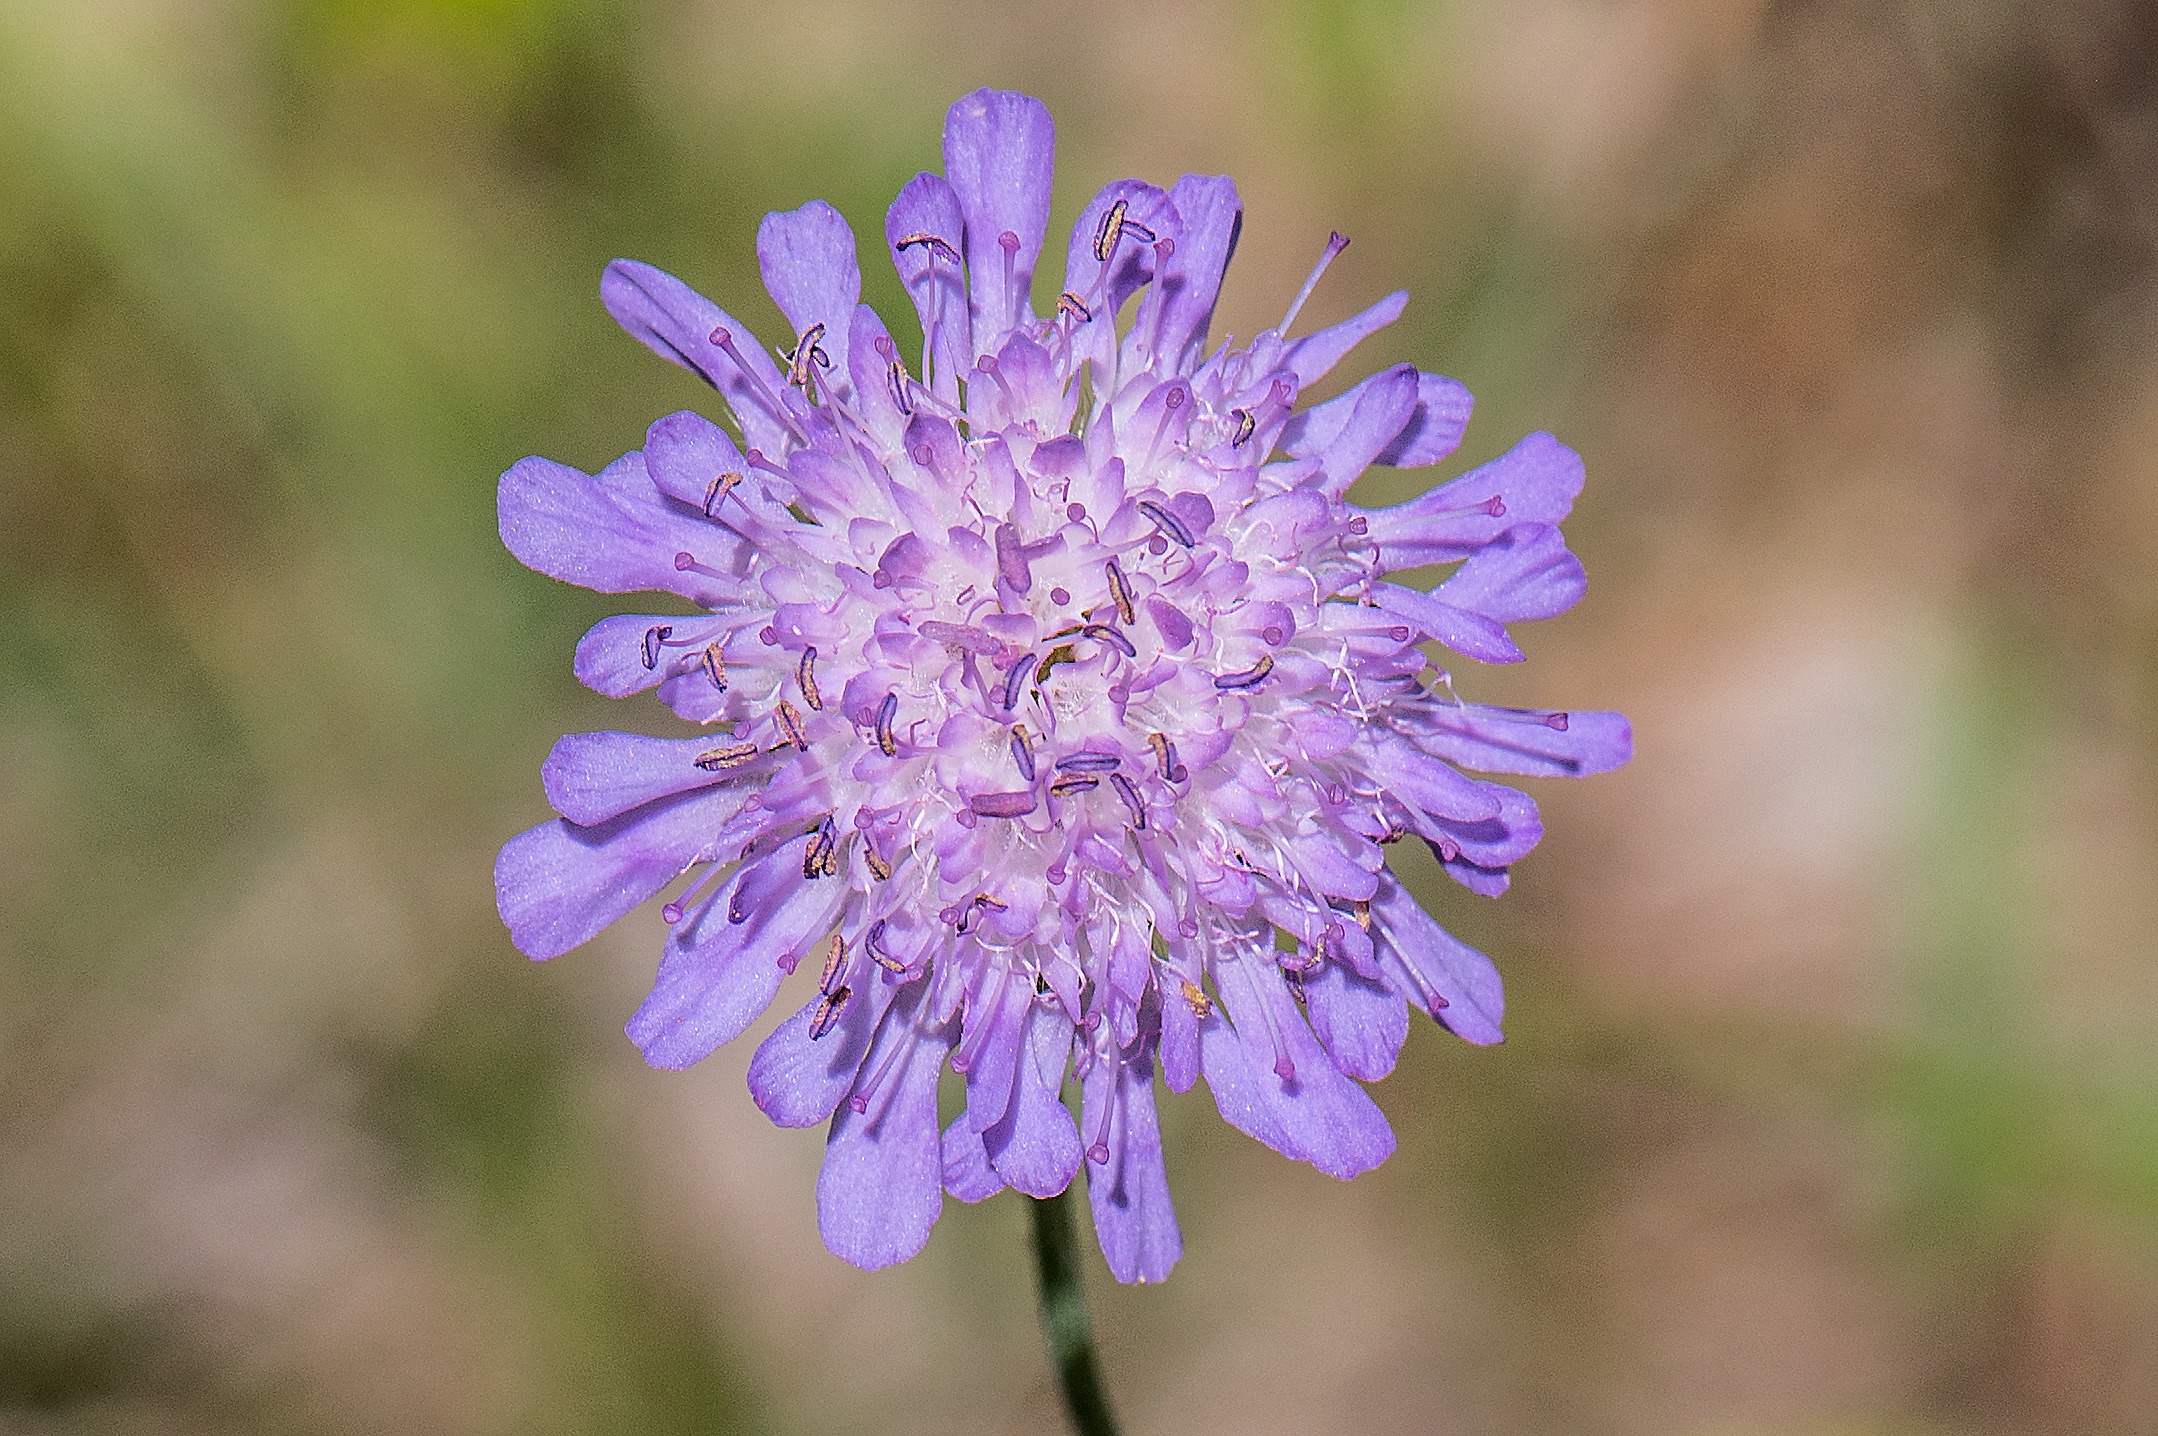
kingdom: Plantae
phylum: Tracheophyta
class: Magnoliopsida
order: Dipsacales
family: Caprifoliaceae
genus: Knautia
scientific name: Knautia arvensis
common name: Blåhat
